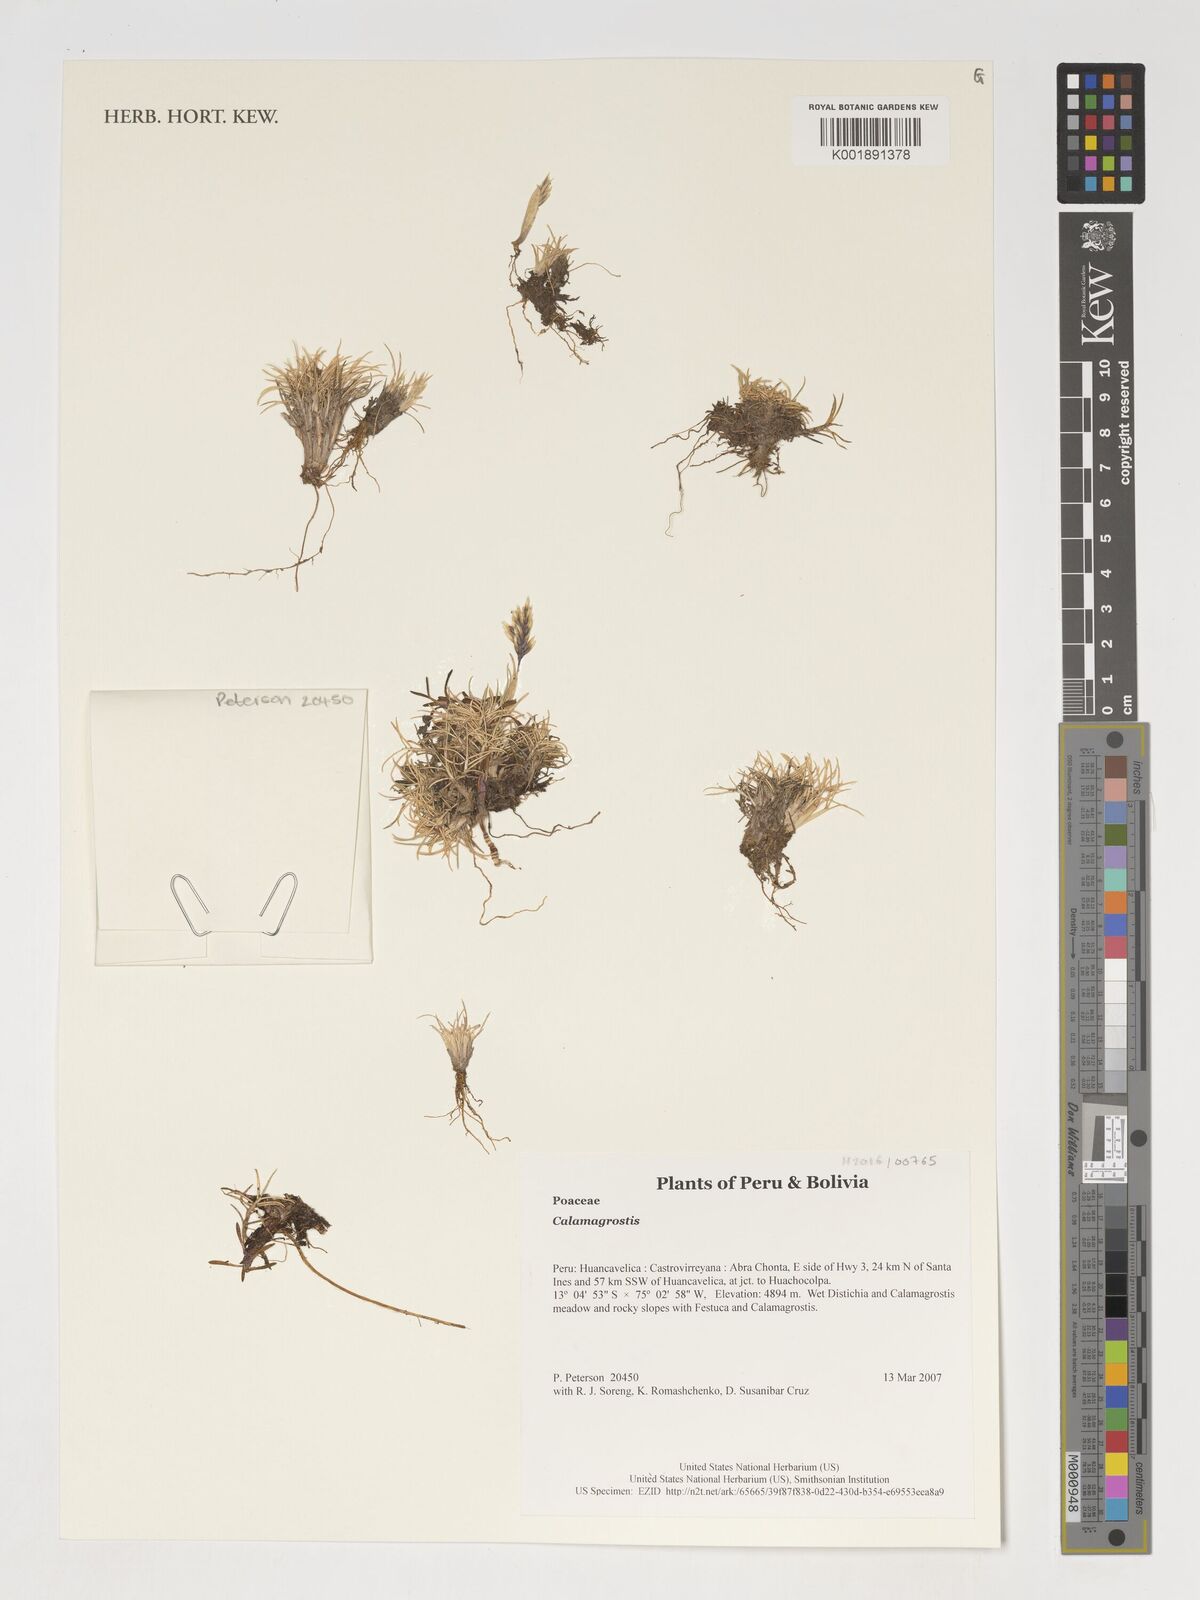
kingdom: Plantae
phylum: Tracheophyta
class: Liliopsida
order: Poales
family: Poaceae
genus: Calamagrostis
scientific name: Calamagrostis
